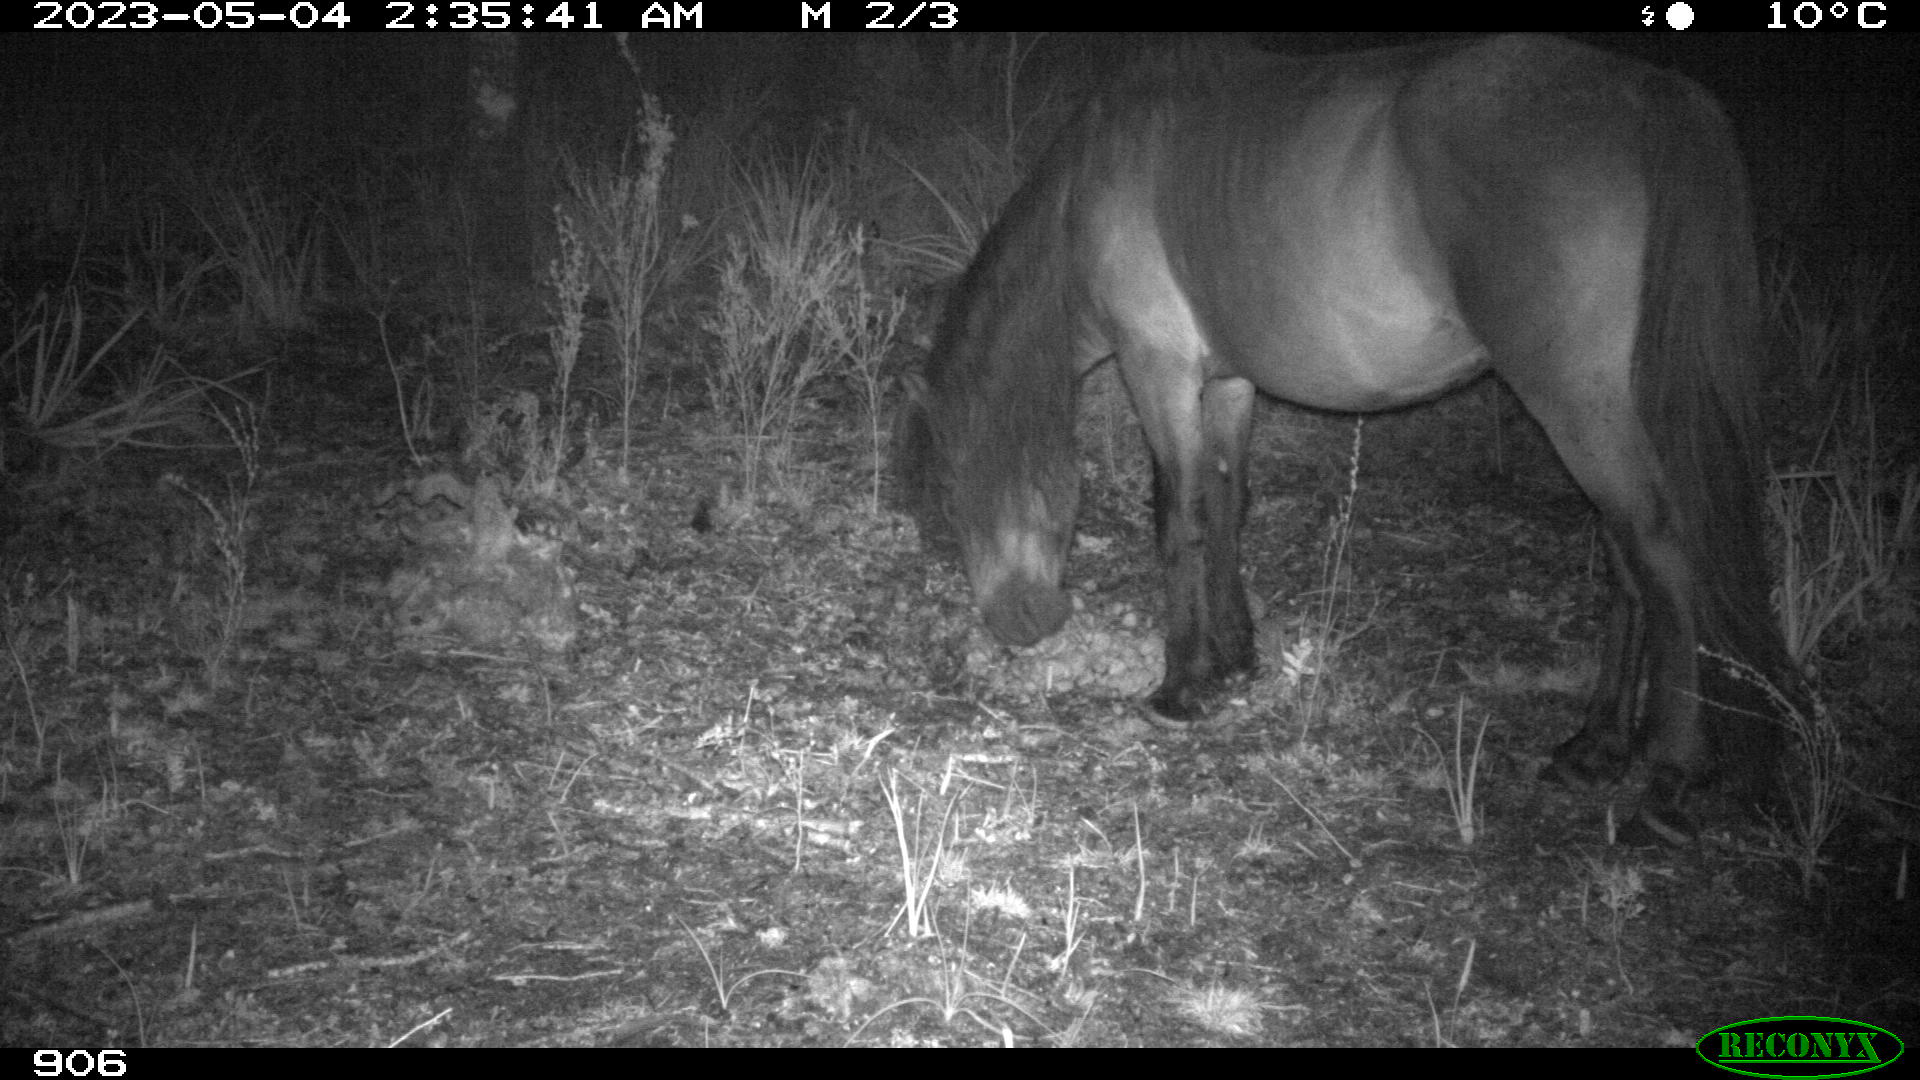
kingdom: Animalia
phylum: Chordata
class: Mammalia
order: Perissodactyla
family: Equidae
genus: Equus
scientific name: Equus caballus
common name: Horse
